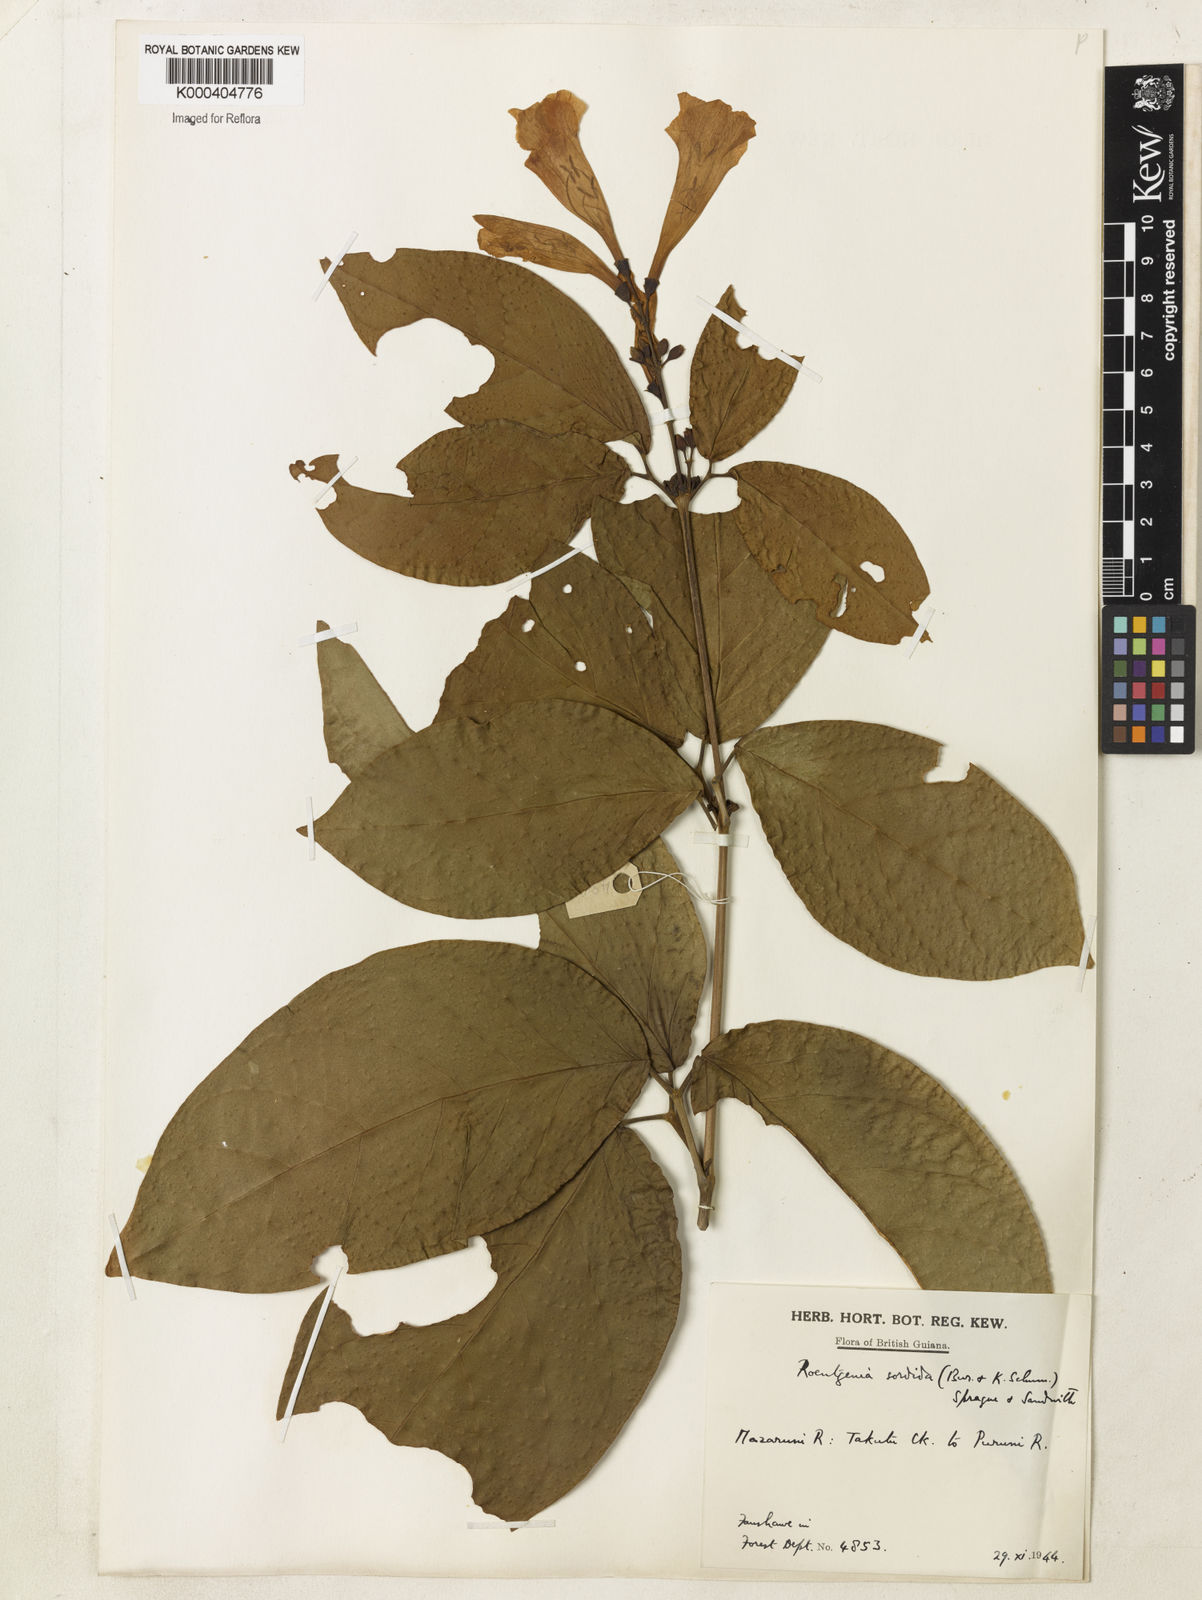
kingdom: Plantae
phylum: Tracheophyta
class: Magnoliopsida
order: Lamiales
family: Bignoniaceae
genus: Bignonia
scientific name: Bignonia sordida
